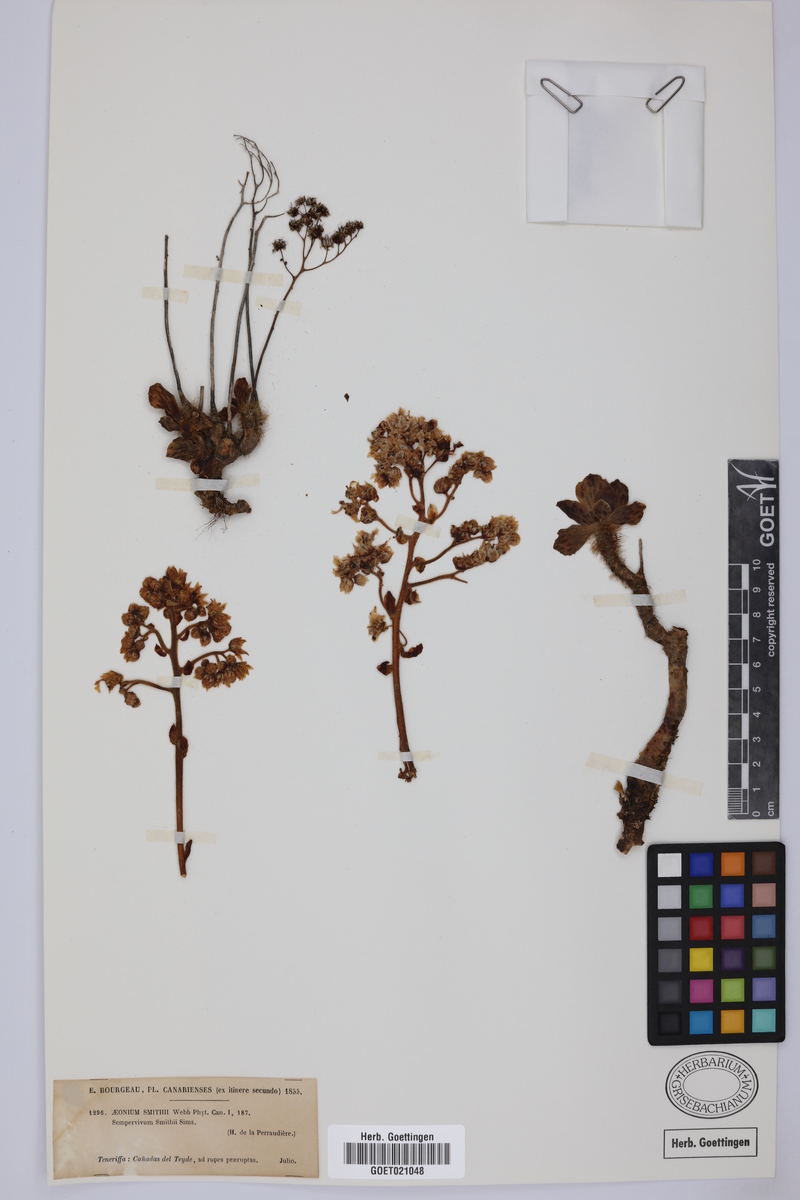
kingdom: Plantae
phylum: Tracheophyta
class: Magnoliopsida
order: Saxifragales
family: Crassulaceae
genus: Aeonium
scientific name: Aeonium smithii
